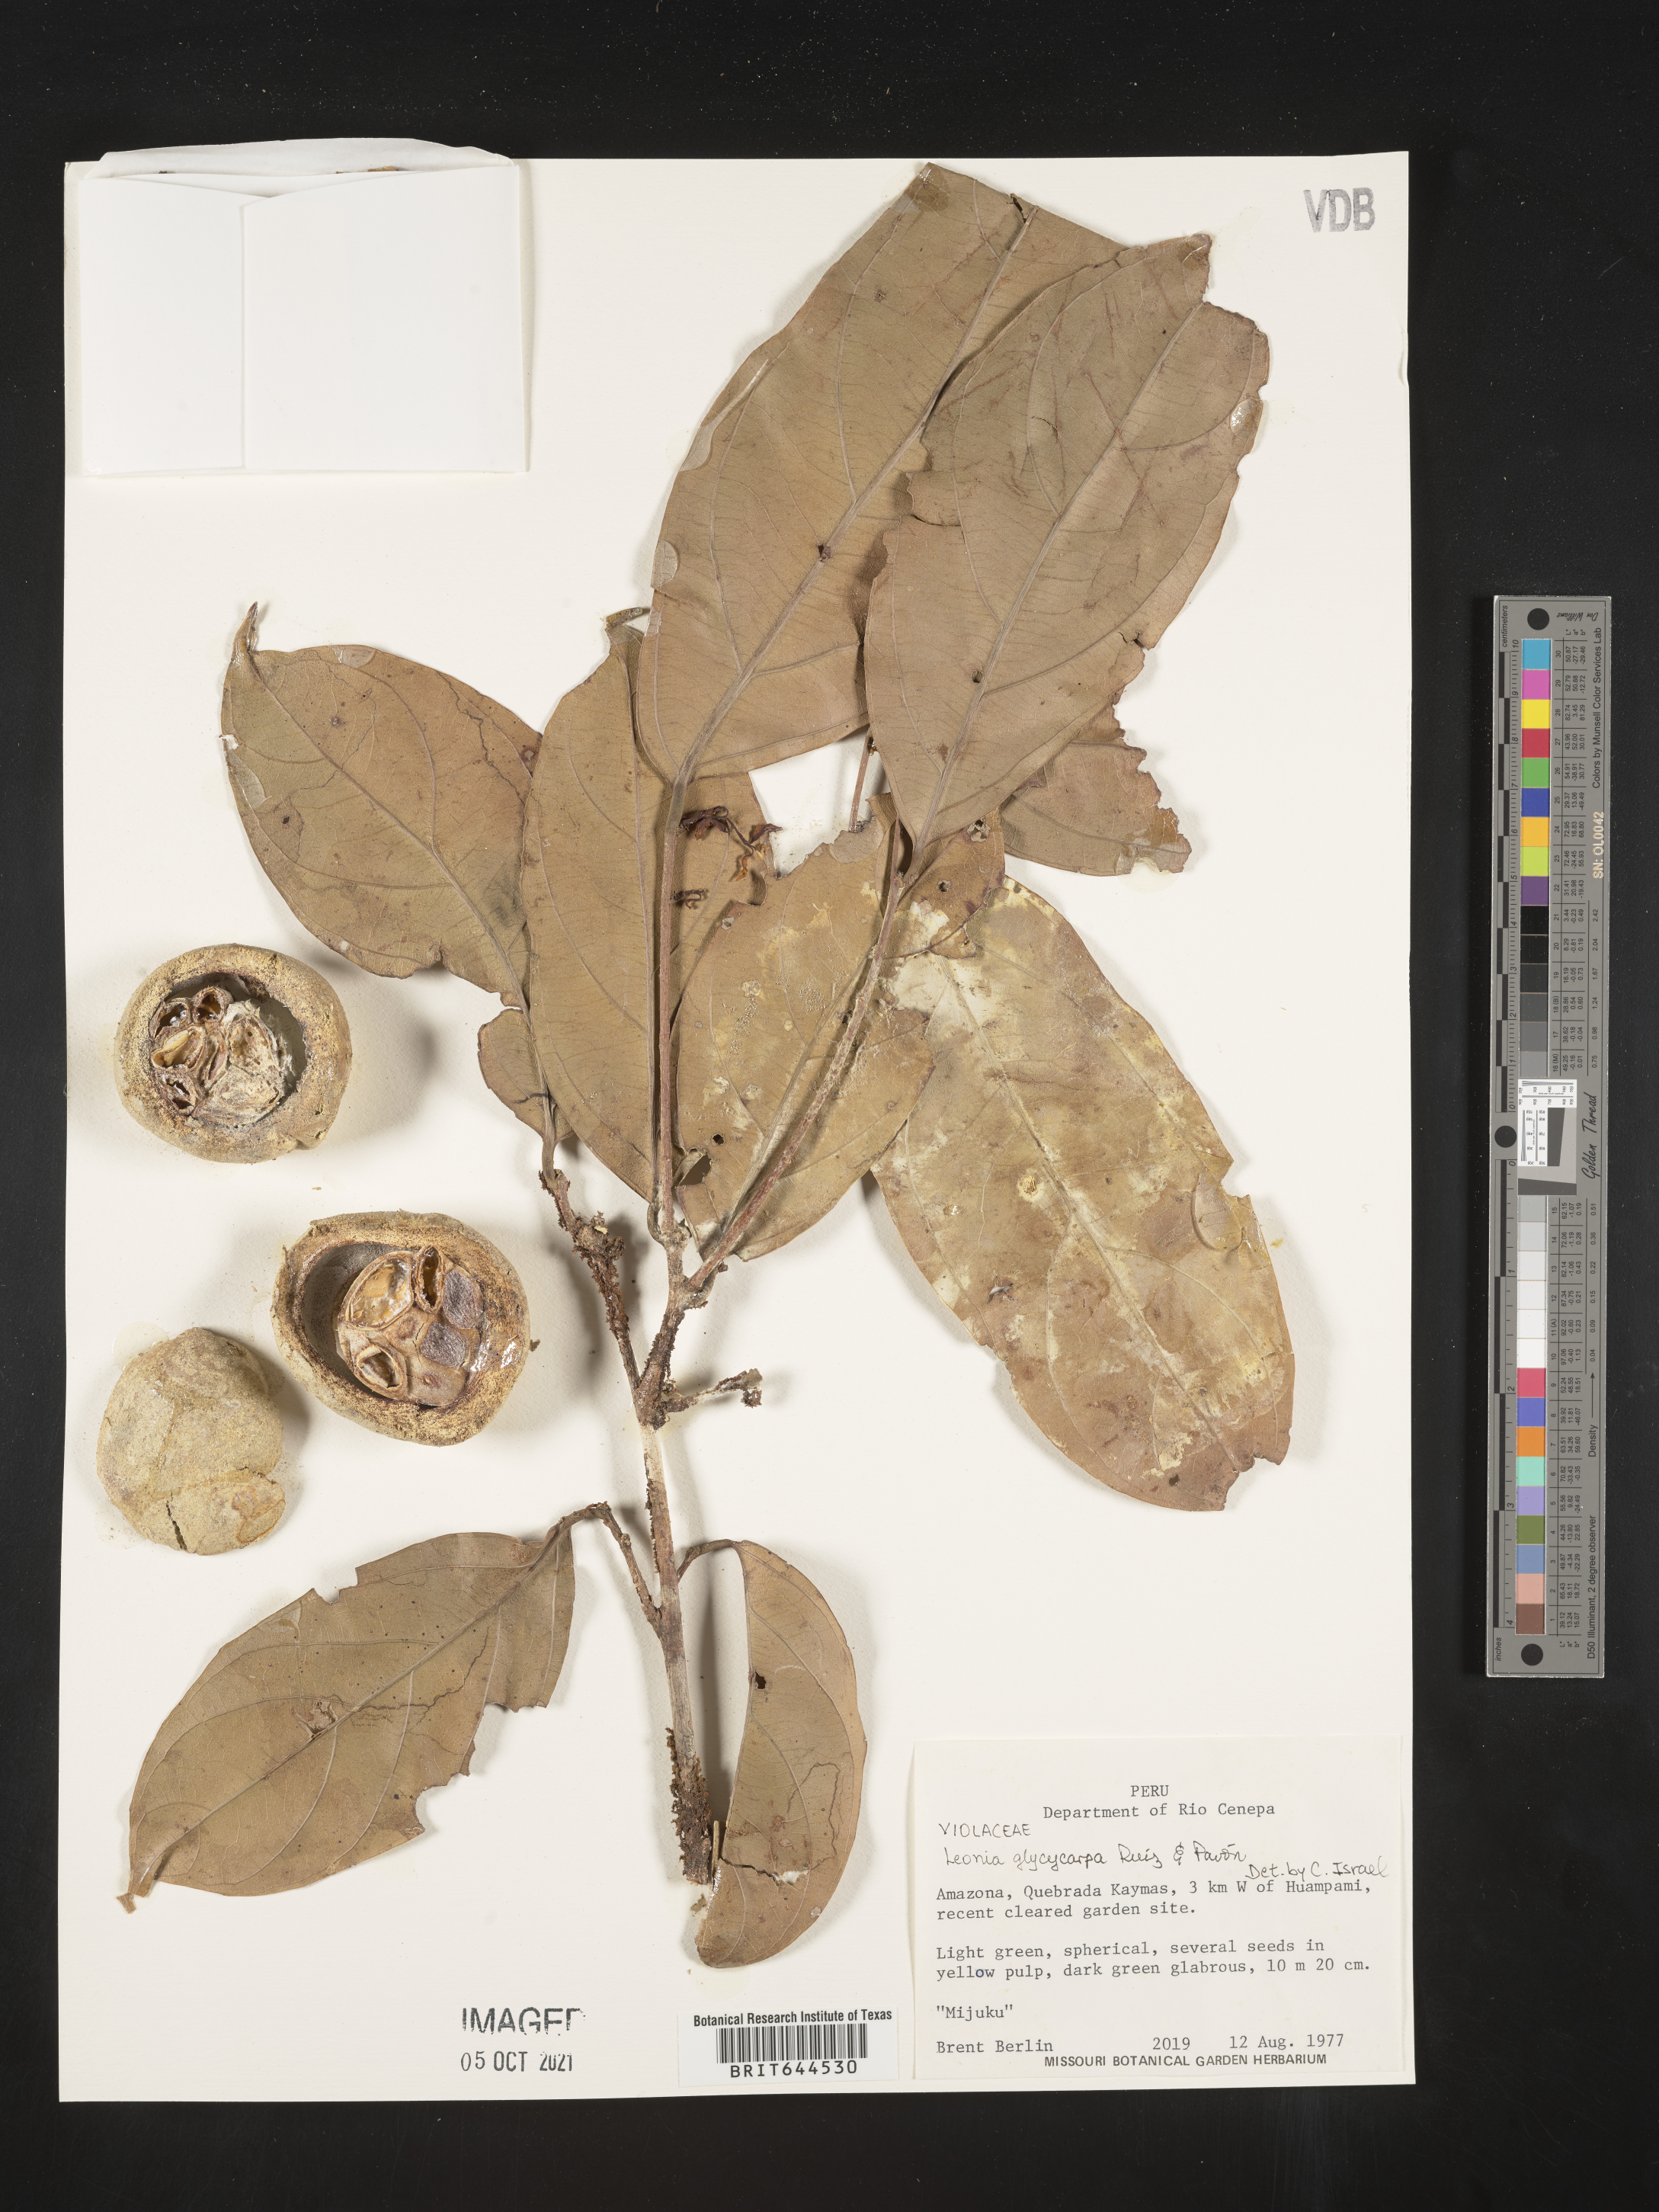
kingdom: Plantae
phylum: Tracheophyta
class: Magnoliopsida
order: Malpighiales
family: Violaceae
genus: Leonia
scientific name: Leonia
